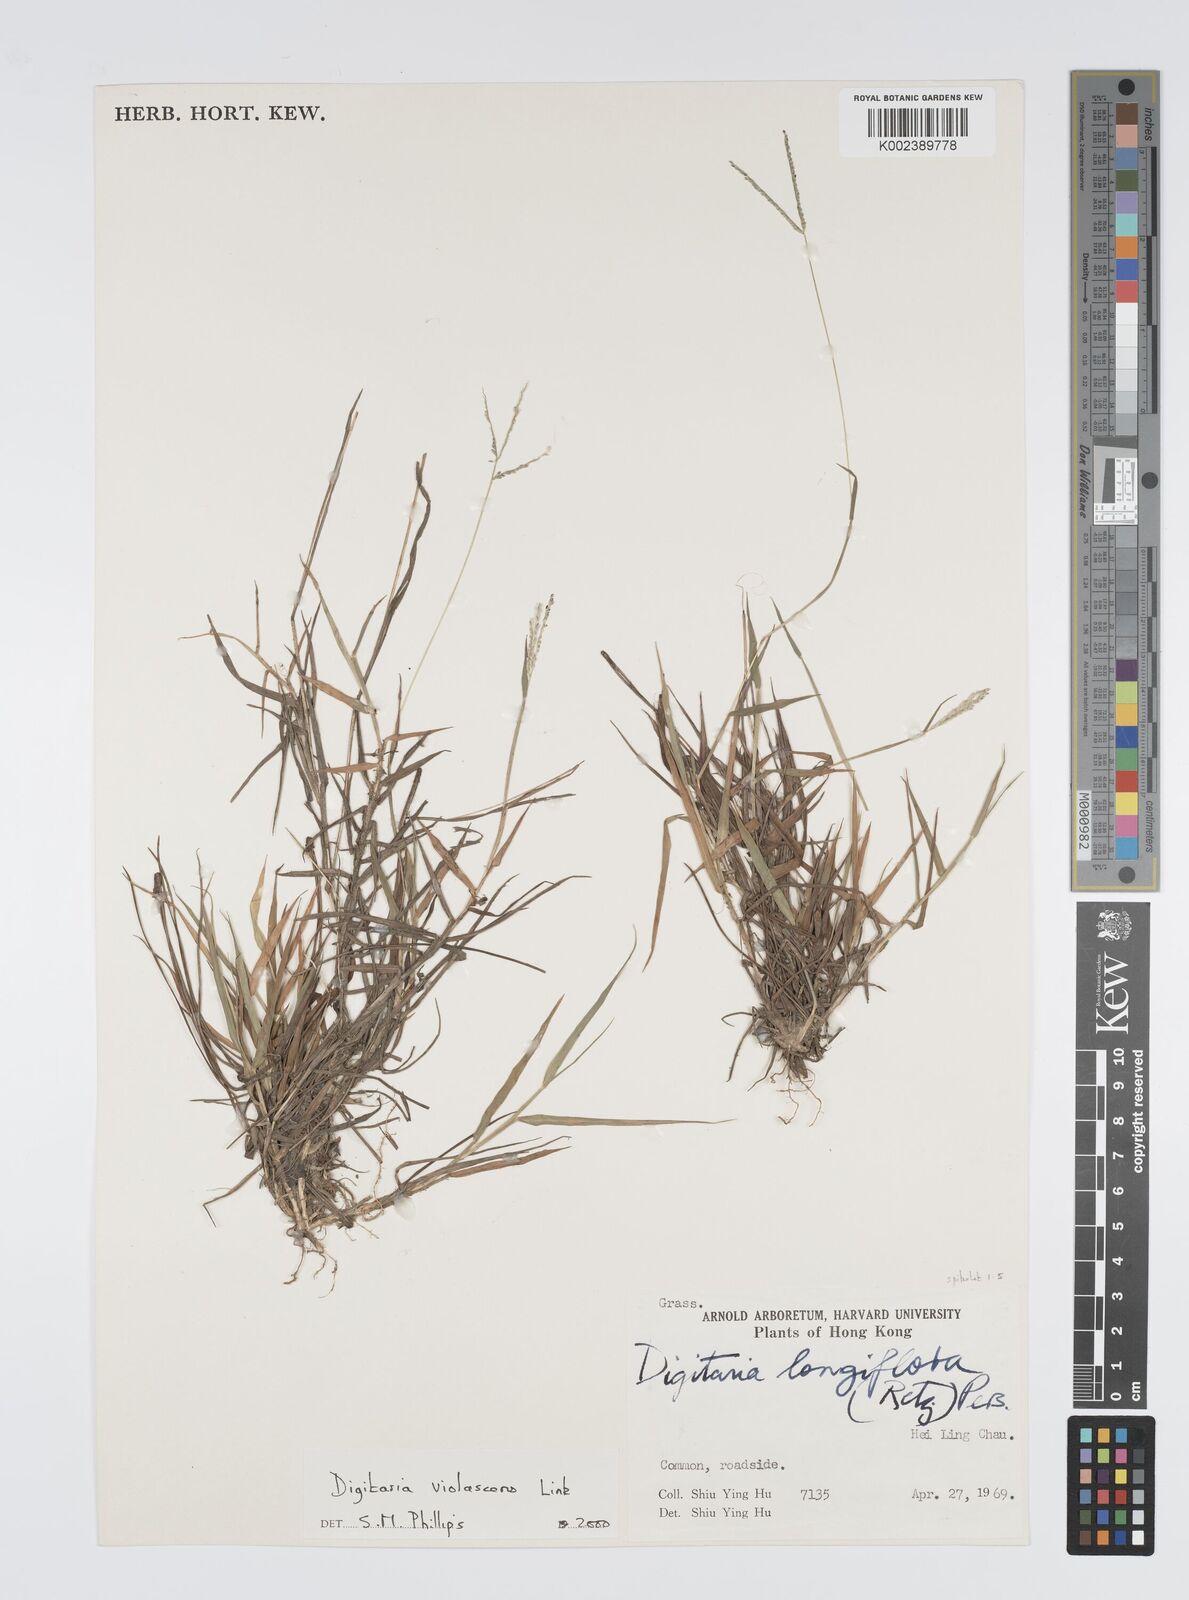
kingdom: Plantae
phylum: Tracheophyta
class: Liliopsida
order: Poales
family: Poaceae
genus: Digitaria
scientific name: Digitaria violascens
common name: Violet crabgrass
